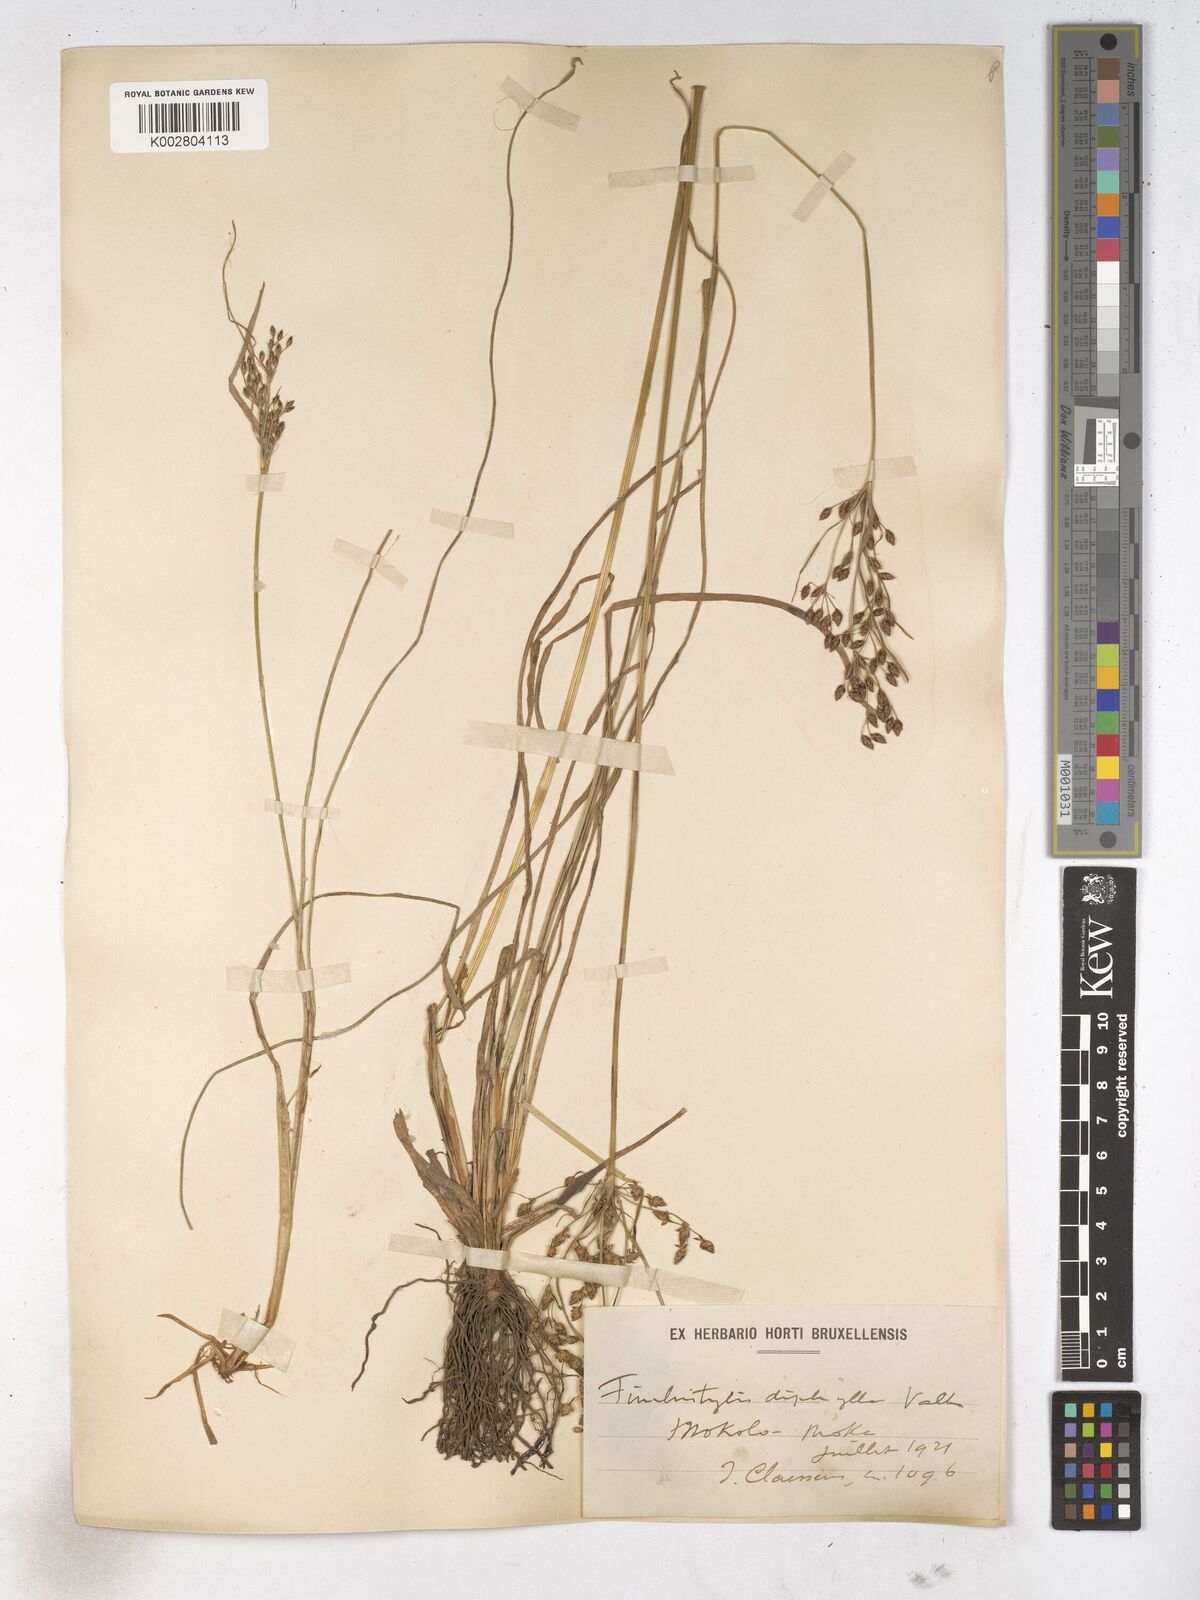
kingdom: Plantae
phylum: Tracheophyta
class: Liliopsida
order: Poales
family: Cyperaceae
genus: Fimbristylis
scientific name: Fimbristylis dichotoma
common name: Forked fimbry
